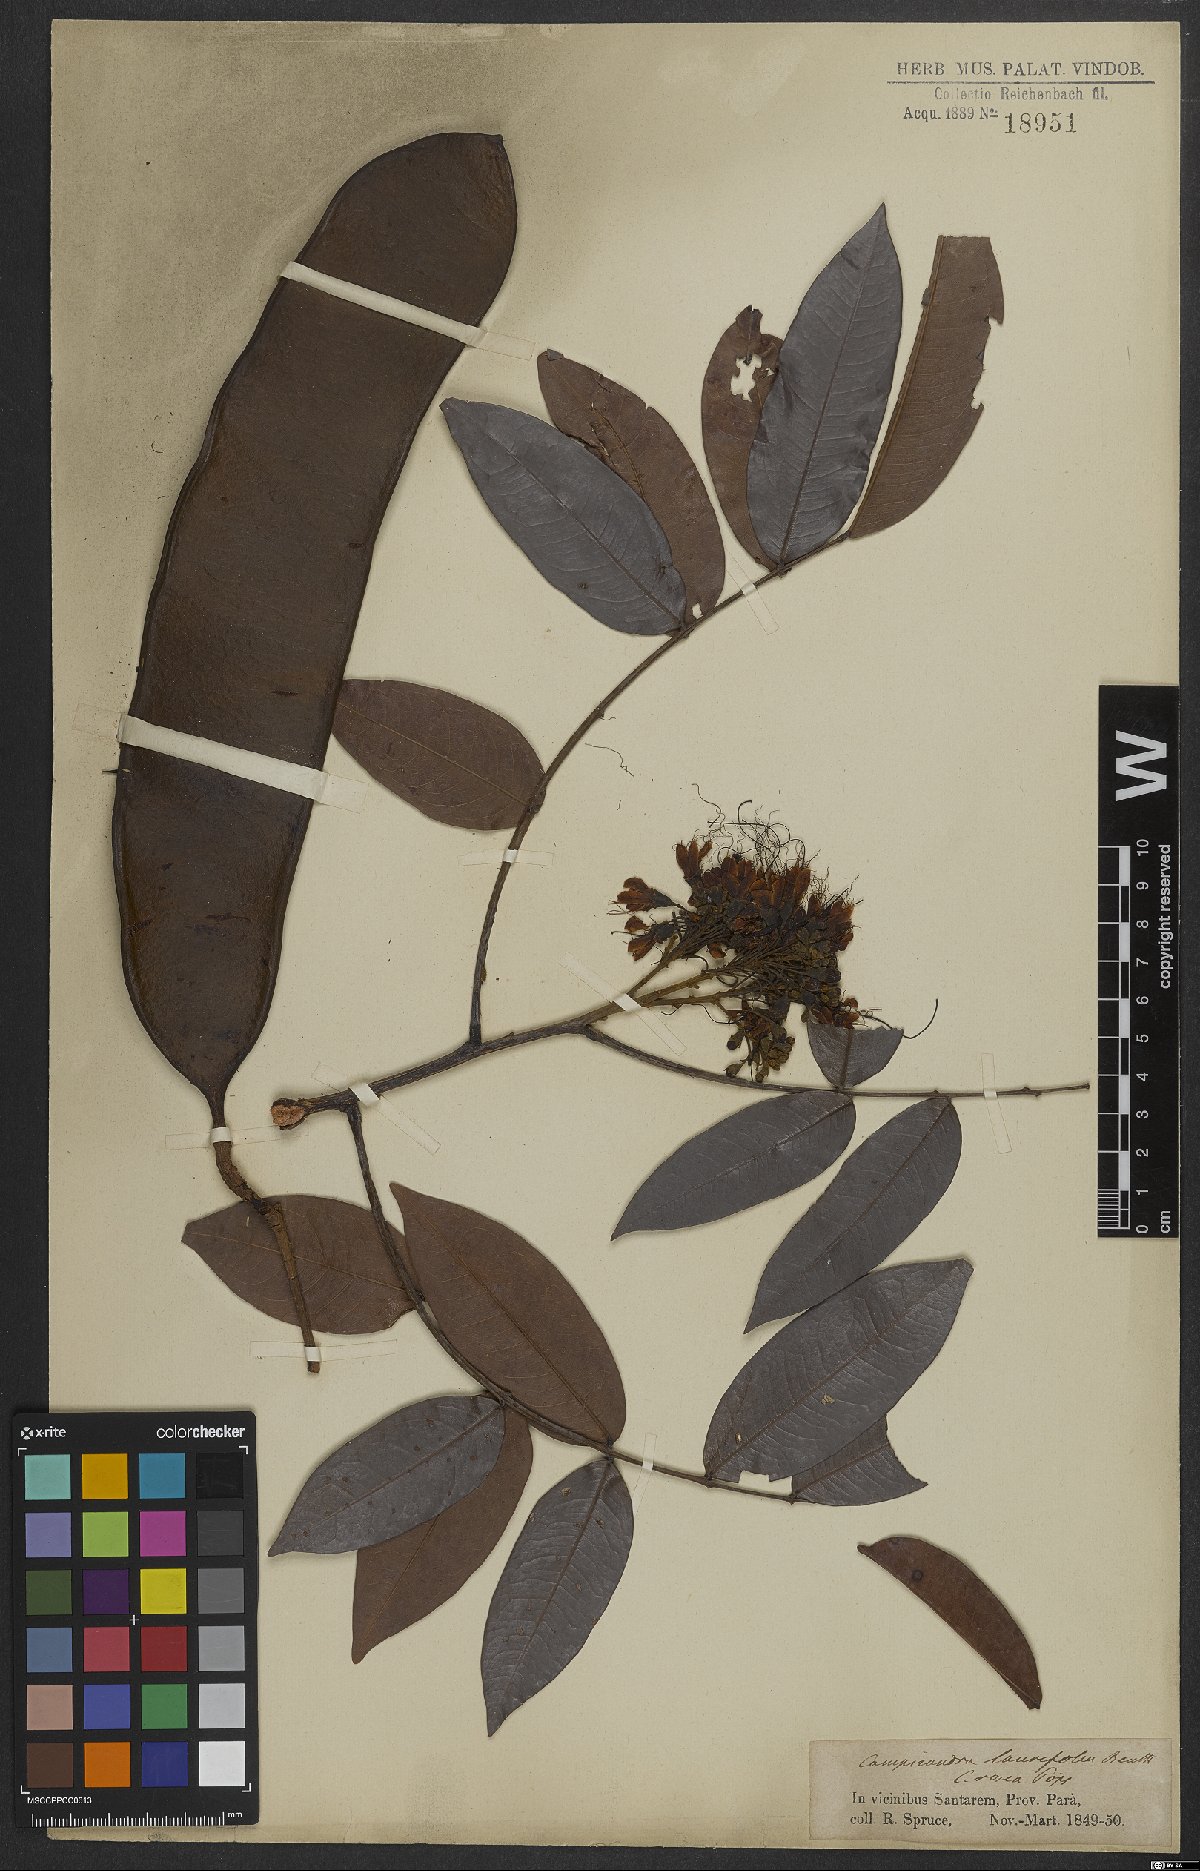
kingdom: Plantae
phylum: Tracheophyta
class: Magnoliopsida
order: Fabales
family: Fabaceae
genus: Campsiandra
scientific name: Campsiandra laurifolia
